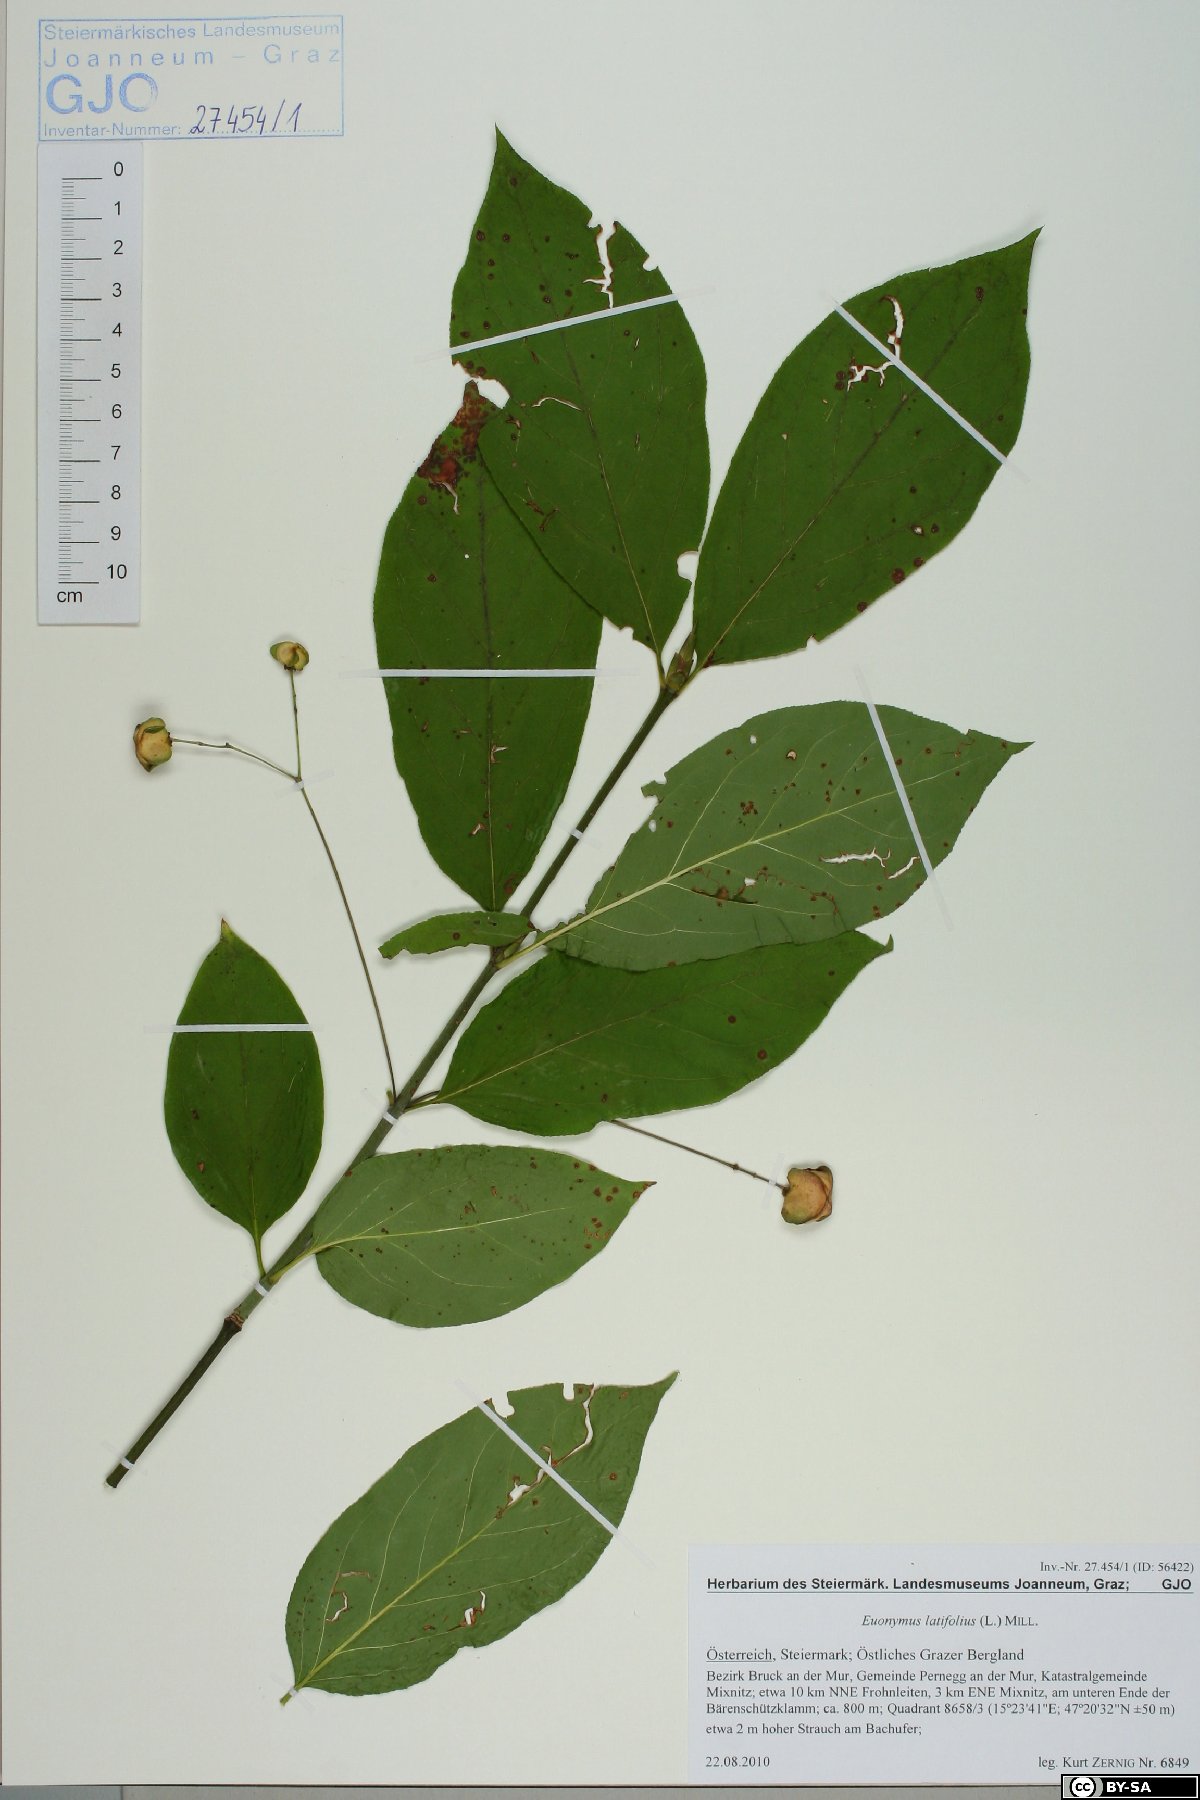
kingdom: Plantae
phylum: Tracheophyta
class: Magnoliopsida
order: Celastrales
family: Celastraceae
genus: Euonymus
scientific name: Euonymus latifolius
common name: Large-leaved spindle
